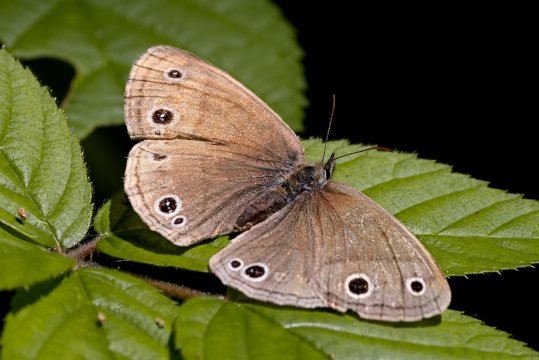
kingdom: Animalia
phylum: Arthropoda
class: Insecta
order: Lepidoptera
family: Nymphalidae
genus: Euptychia
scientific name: Euptychia cymela
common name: Little Wood Satyr
